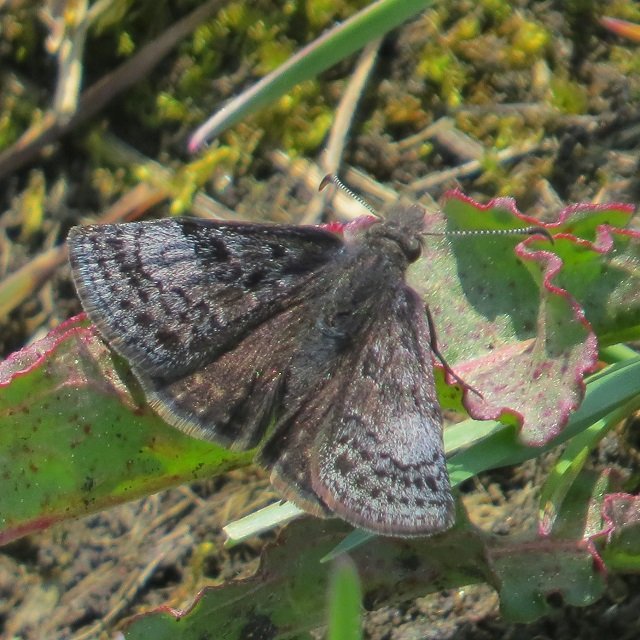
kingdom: Animalia
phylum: Arthropoda
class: Insecta
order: Lepidoptera
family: Hesperiidae
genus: Erynnis
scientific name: Erynnis icelus
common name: Dreamy Duskywing
